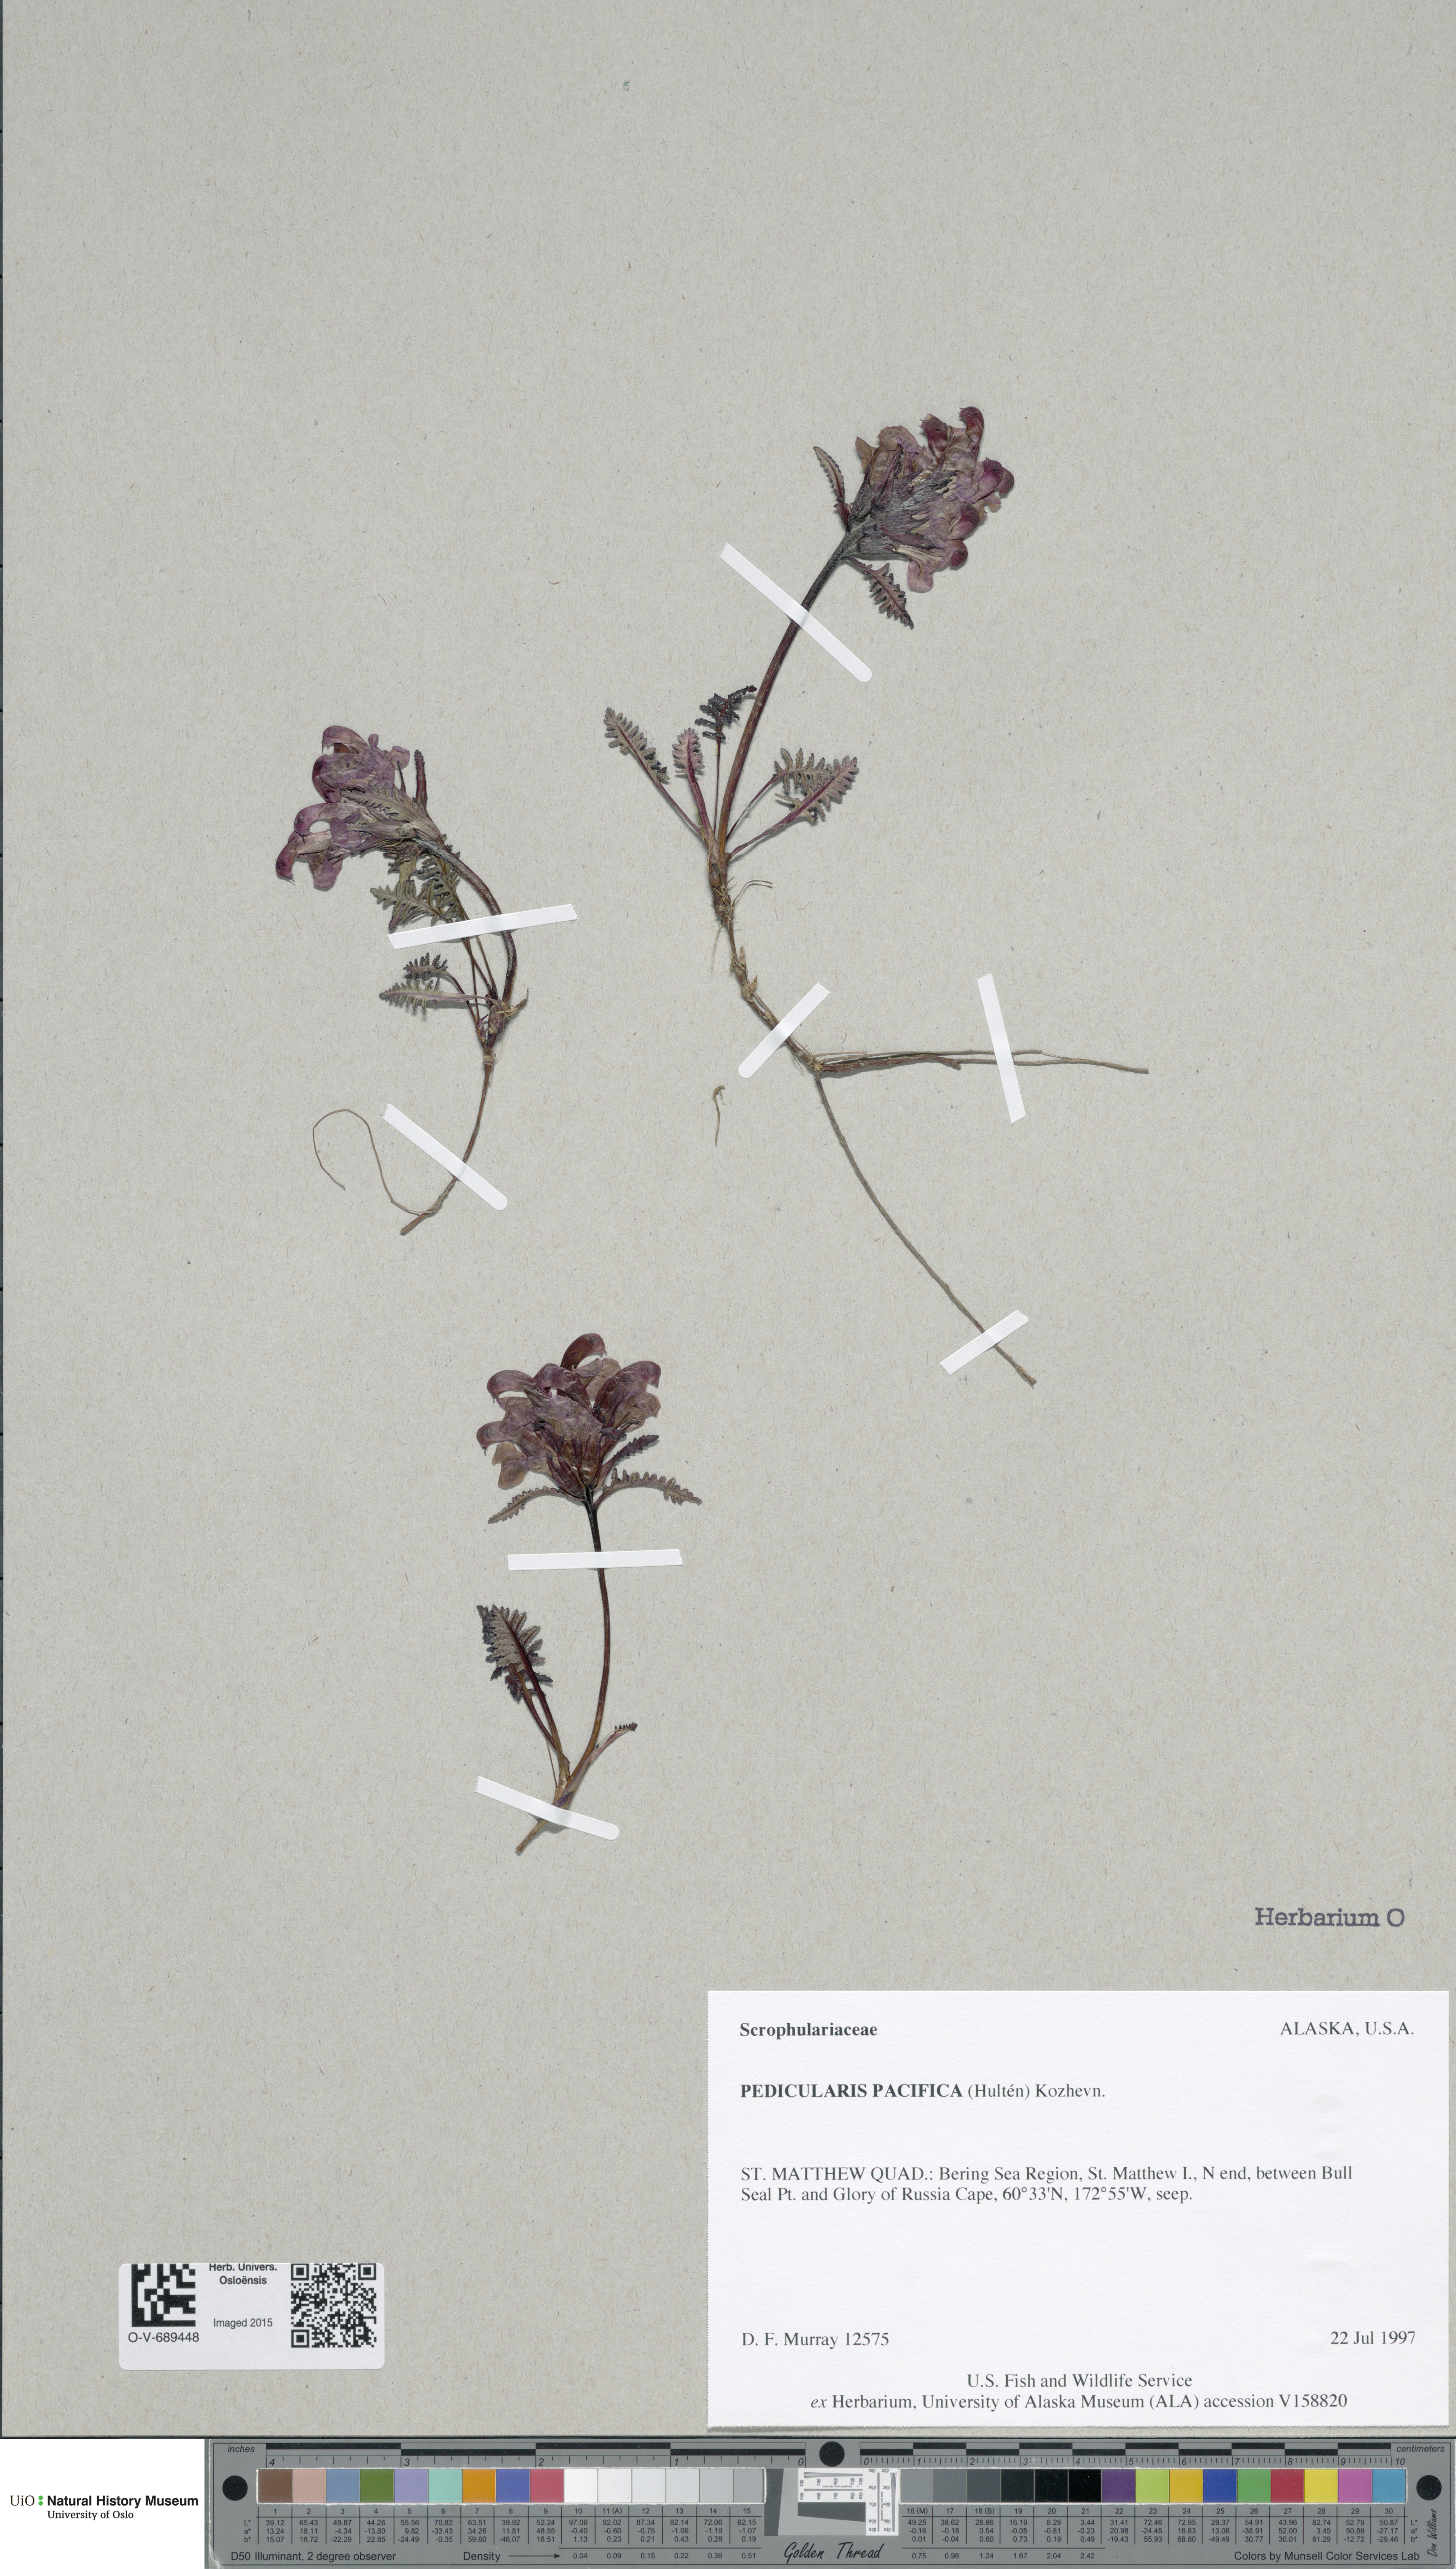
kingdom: Plantae
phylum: Tracheophyta
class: Magnoliopsida
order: Lamiales
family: Orobanchaceae
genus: Pedicularis
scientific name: Pedicularis pacifica
